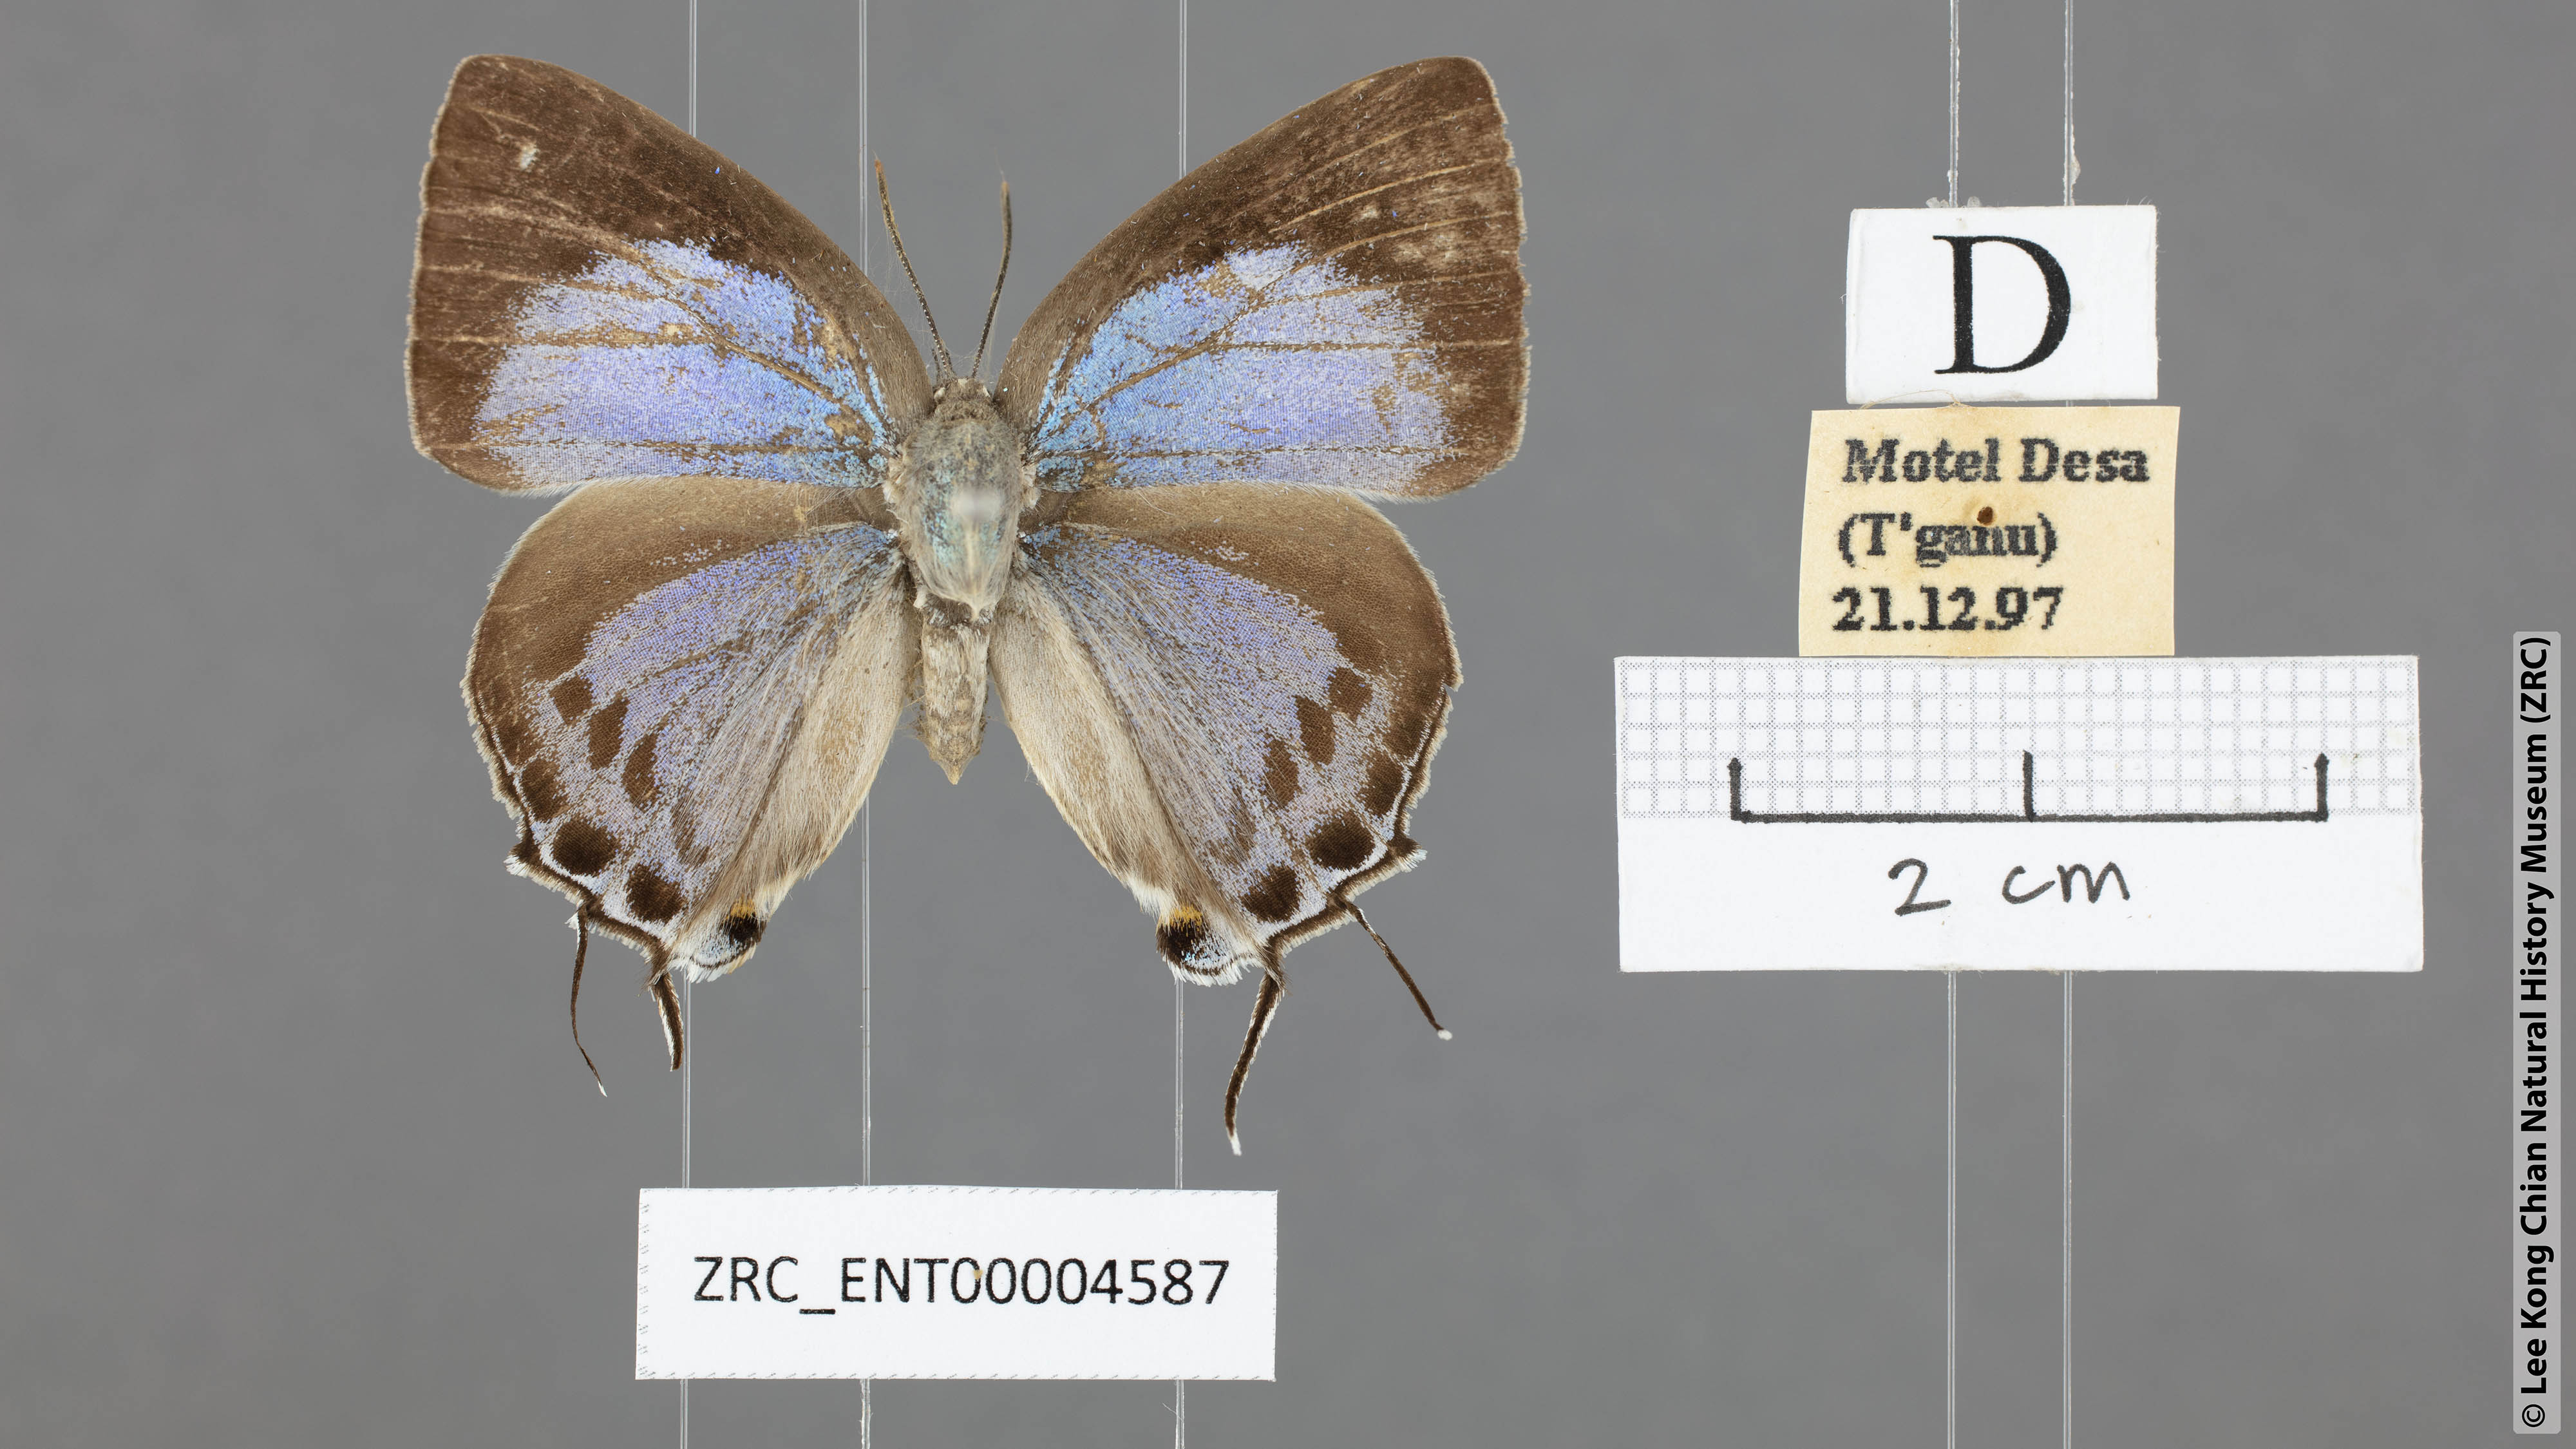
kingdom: Animalia
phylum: Arthropoda
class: Insecta
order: Lepidoptera
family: Lycaenidae
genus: Tajuria
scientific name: Tajuria cippus
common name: Peacock royal
